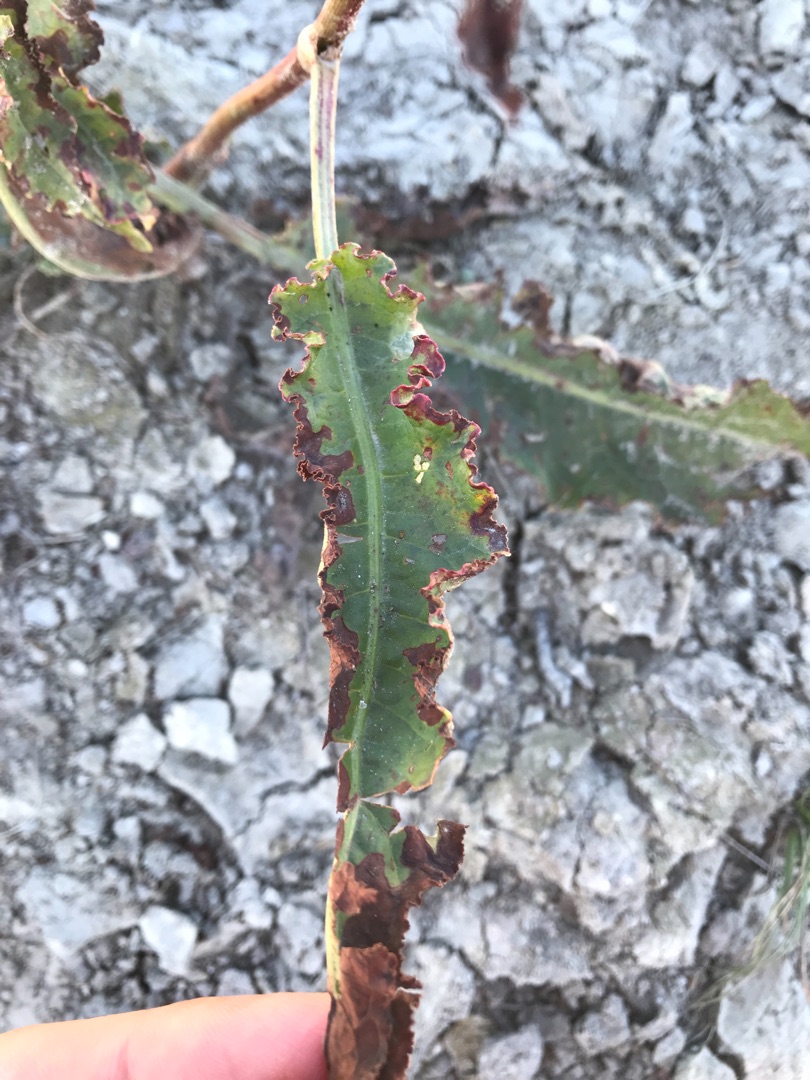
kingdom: Plantae
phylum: Tracheophyta
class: Magnoliopsida
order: Caryophyllales
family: Polygonaceae
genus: Rumex
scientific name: Rumex crispus
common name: Kruset skræppe
